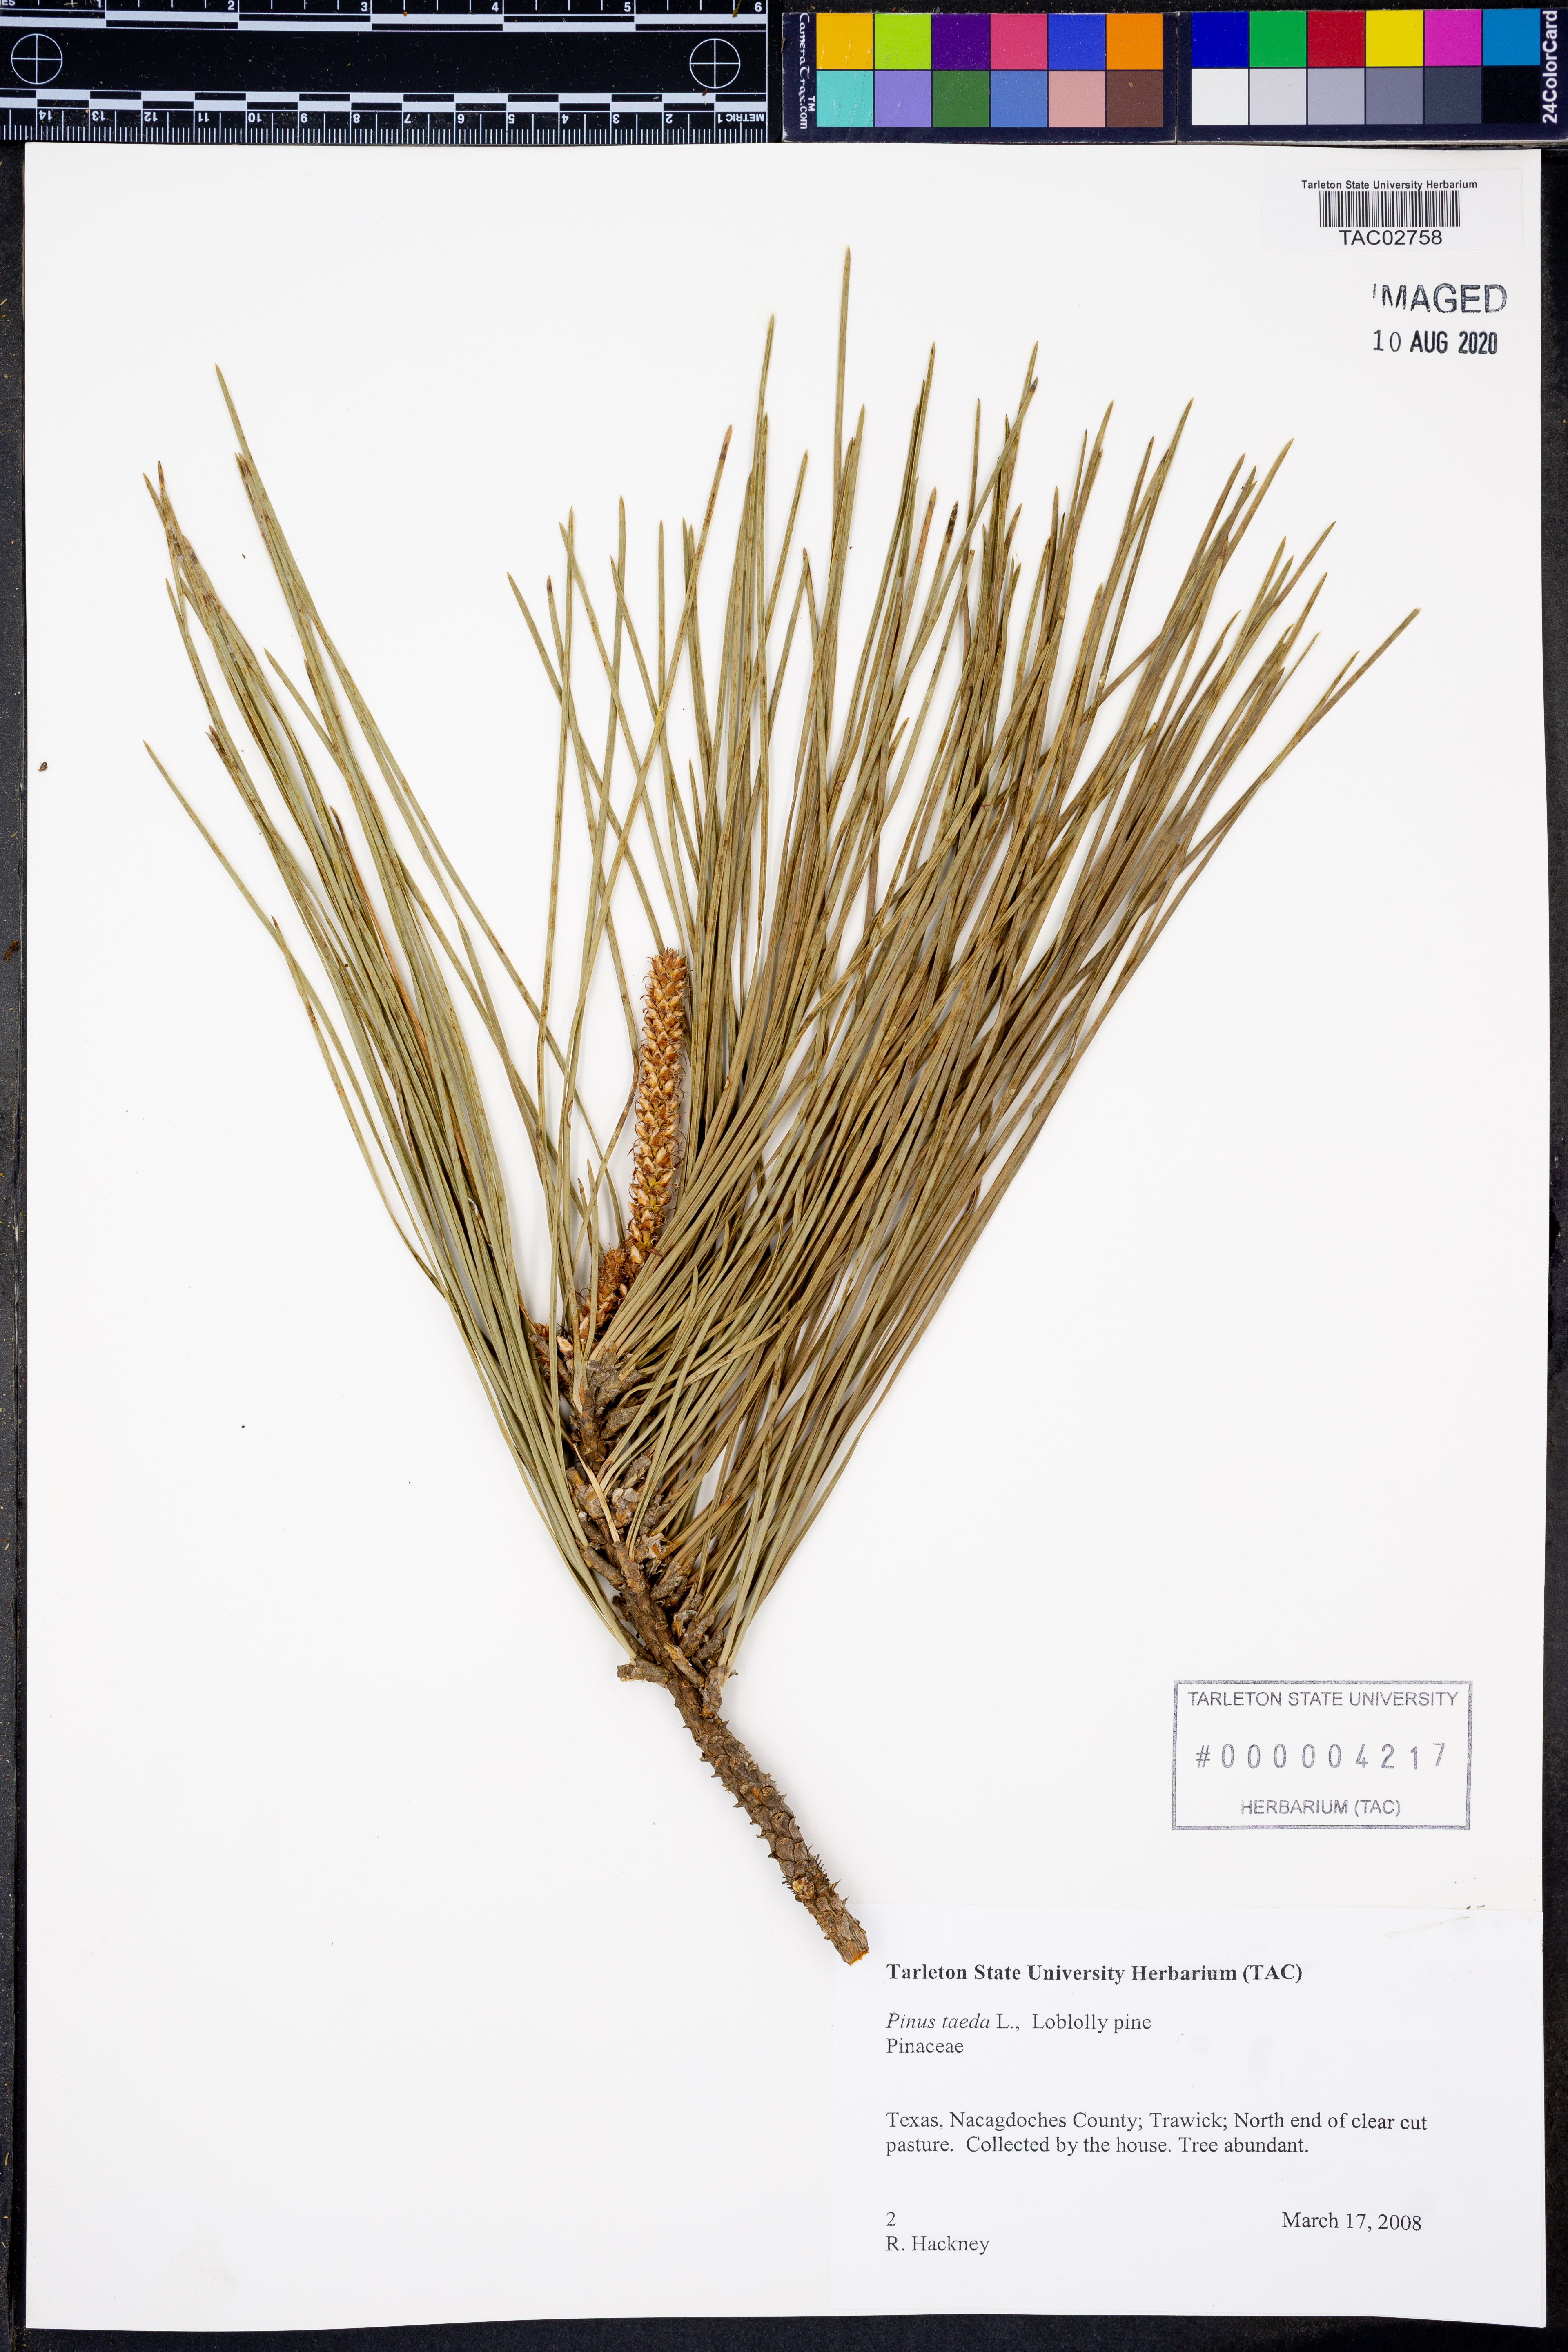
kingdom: Plantae
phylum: Tracheophyta
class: Pinopsida
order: Pinales
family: Pinaceae
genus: Pinus
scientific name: Pinus taeda
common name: Loblolly pine
